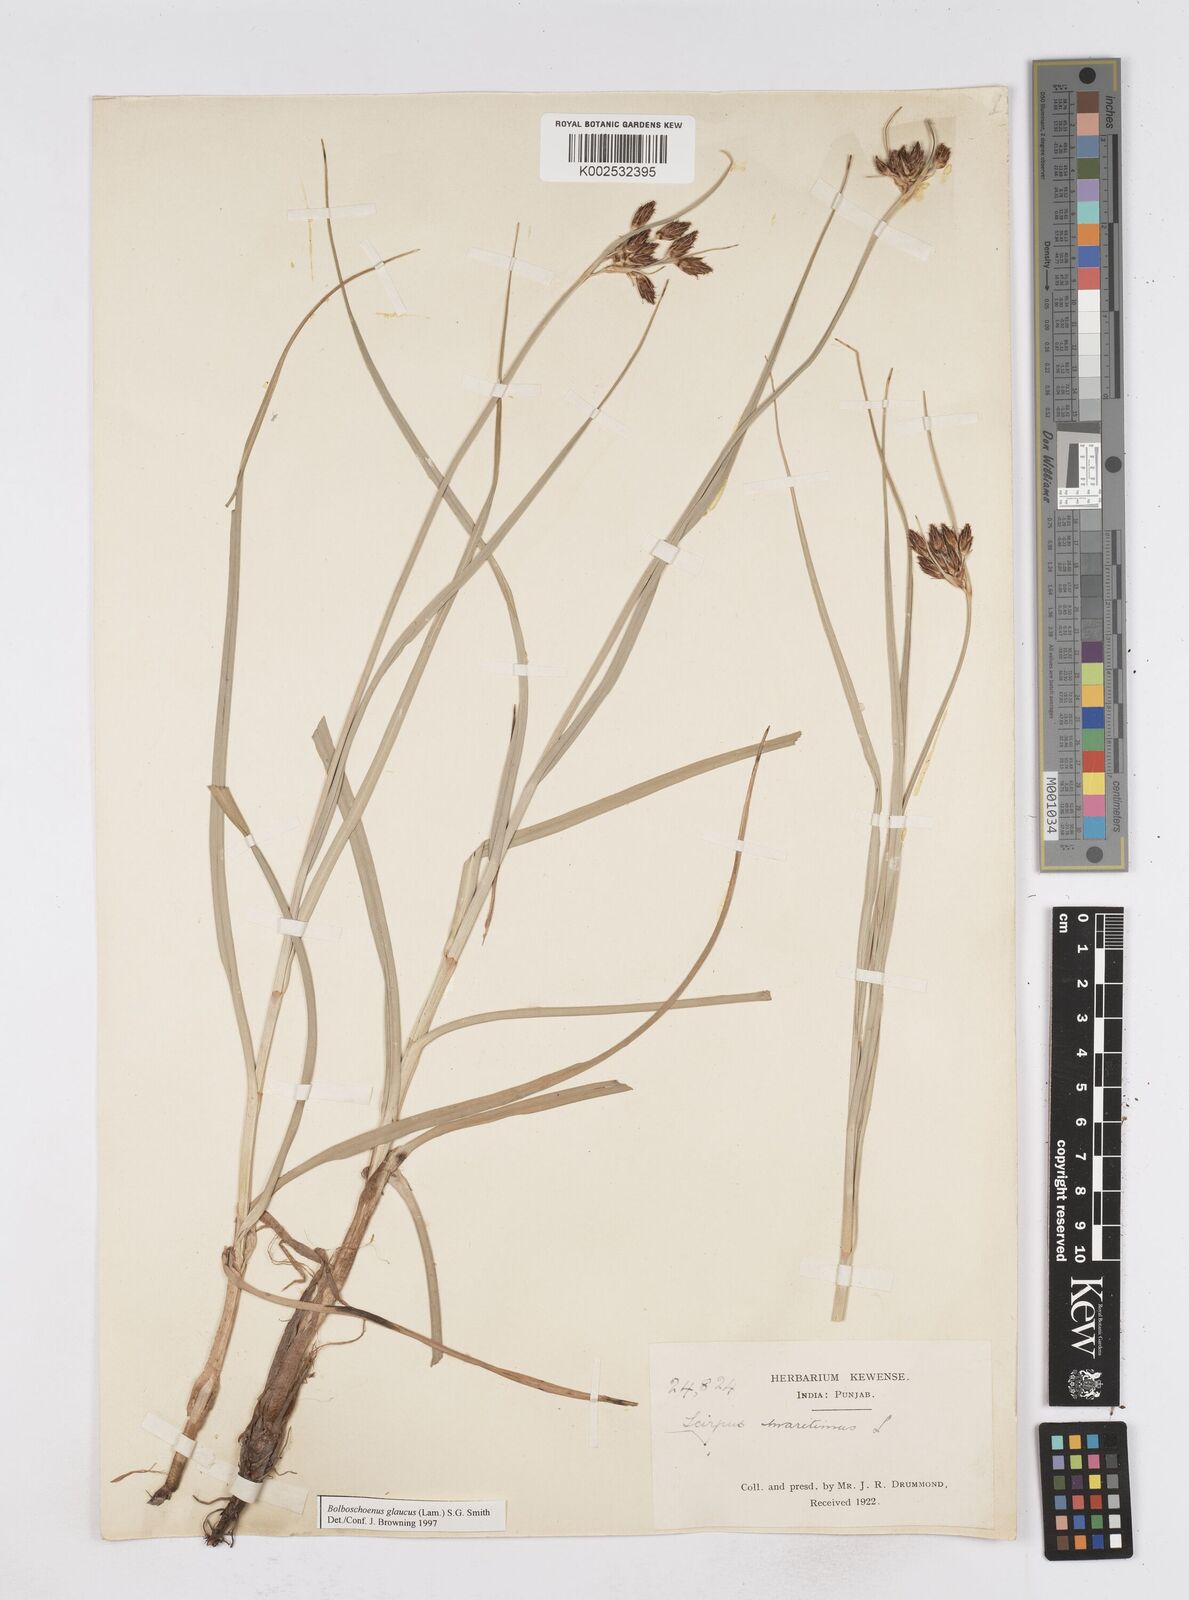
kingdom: Plantae
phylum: Tracheophyta
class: Liliopsida
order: Poales
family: Cyperaceae
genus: Bolboschoenus
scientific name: Bolboschoenus maritimus
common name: Sea club-rush
